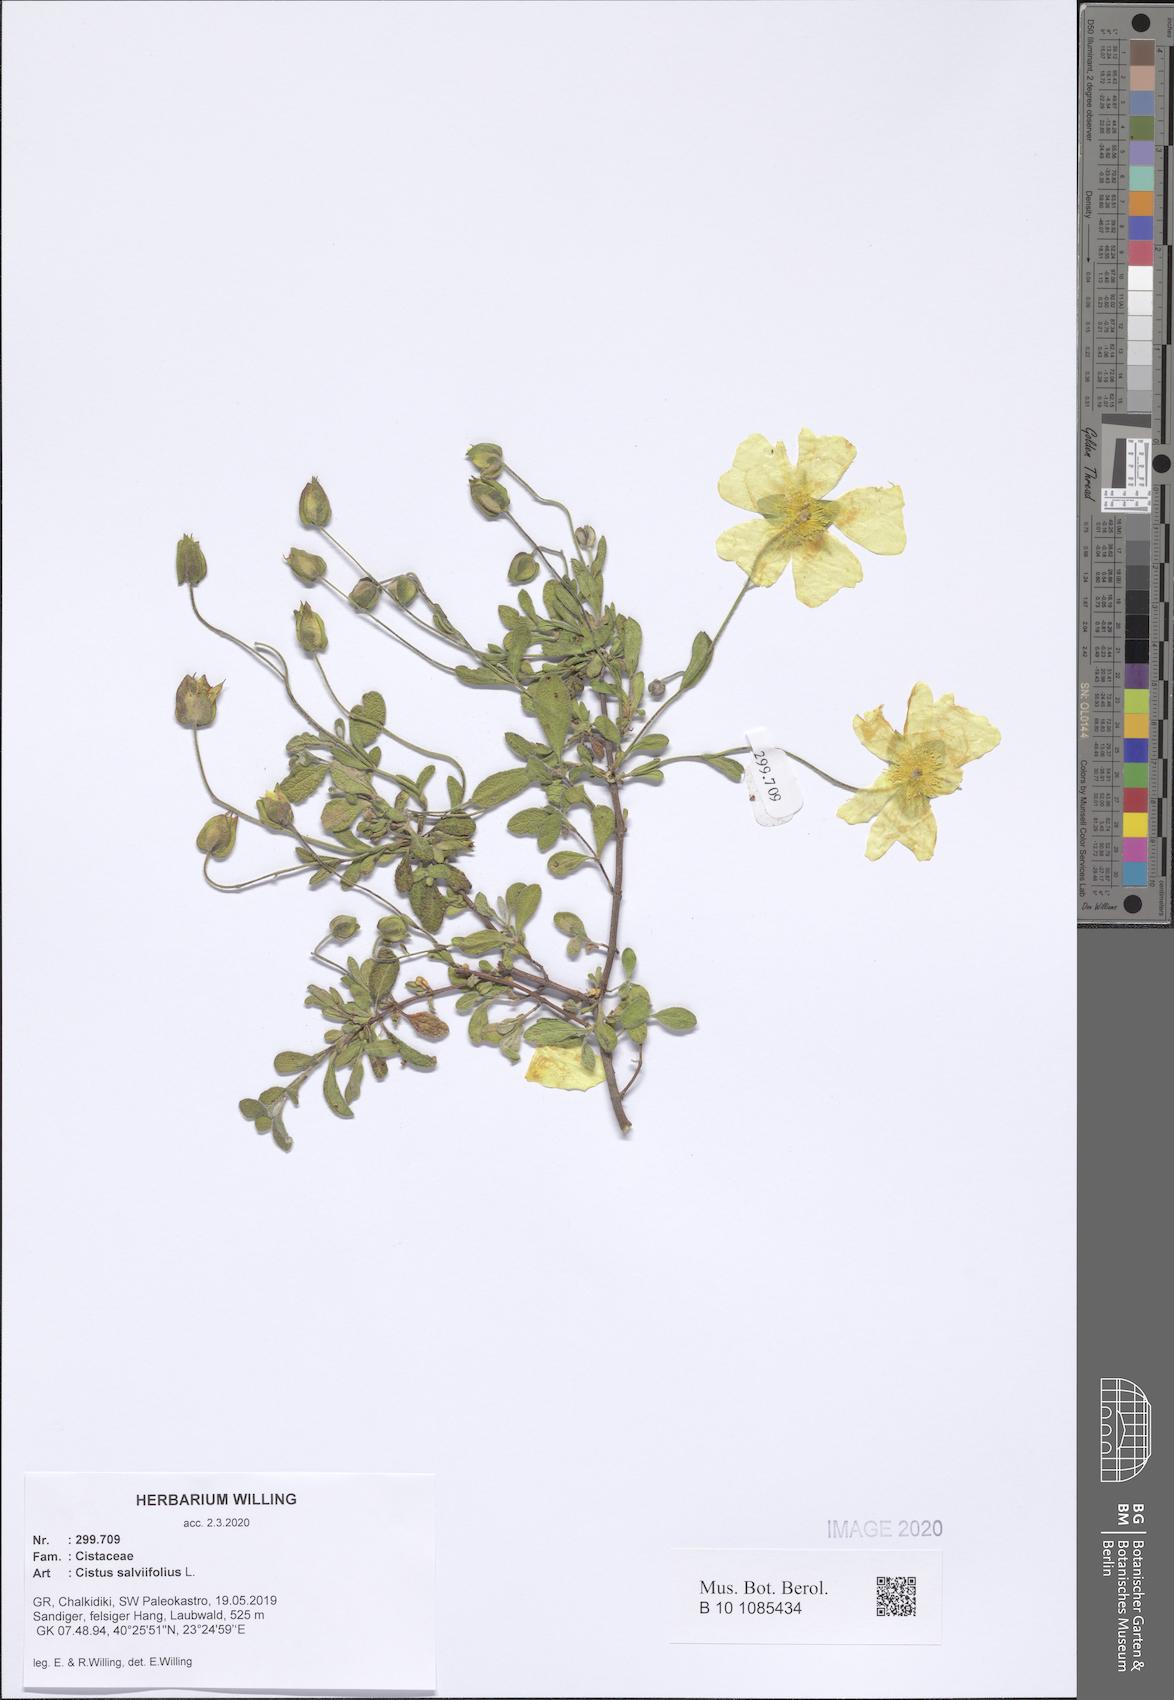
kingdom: Plantae
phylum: Tracheophyta
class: Magnoliopsida
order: Malvales
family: Cistaceae
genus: Cistus
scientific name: Cistus salviifolius
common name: Salvia cistus
